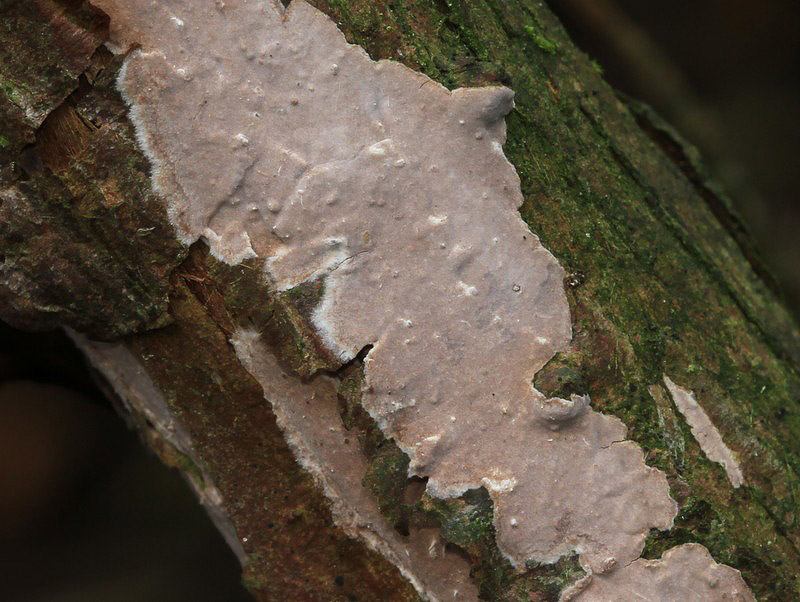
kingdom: Fungi
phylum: Basidiomycota
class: Agaricomycetes
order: Russulales
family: Echinodontiaceae
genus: Amylostereum
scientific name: Amylostereum laevigatum
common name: ene-lædersvamp
